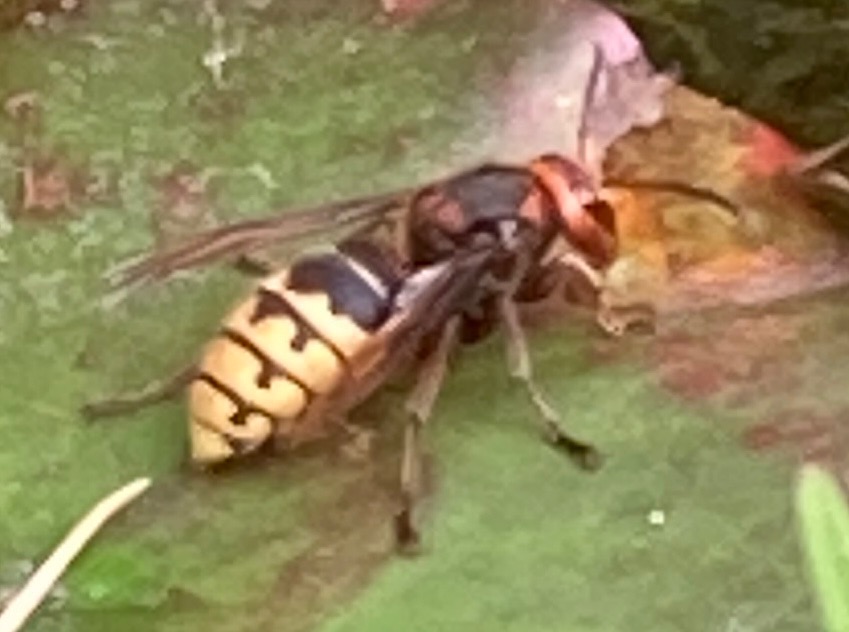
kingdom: Animalia
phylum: Arthropoda
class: Insecta
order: Hymenoptera
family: Vespidae
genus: Vespa
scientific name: Vespa crabro
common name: Stor gedehams
